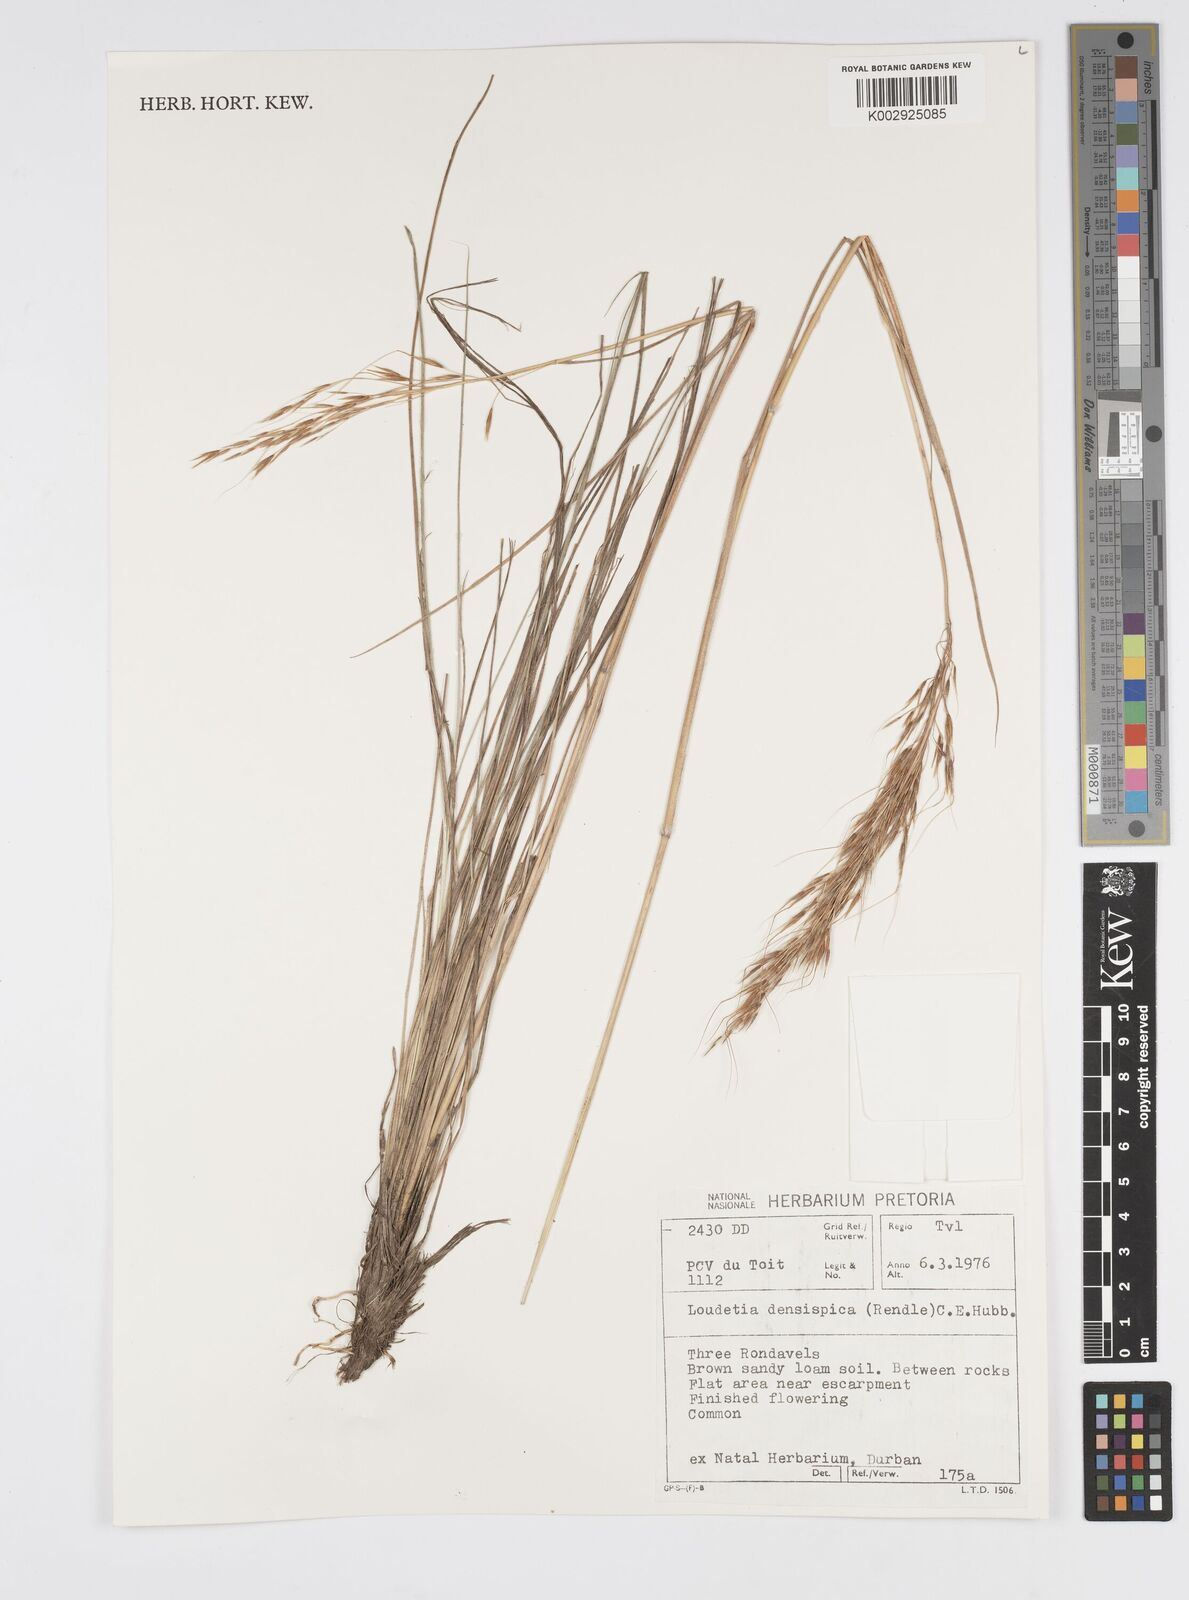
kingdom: Plantae
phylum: Tracheophyta
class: Liliopsida
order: Poales
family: Poaceae
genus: Loudetia
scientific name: Loudetia
